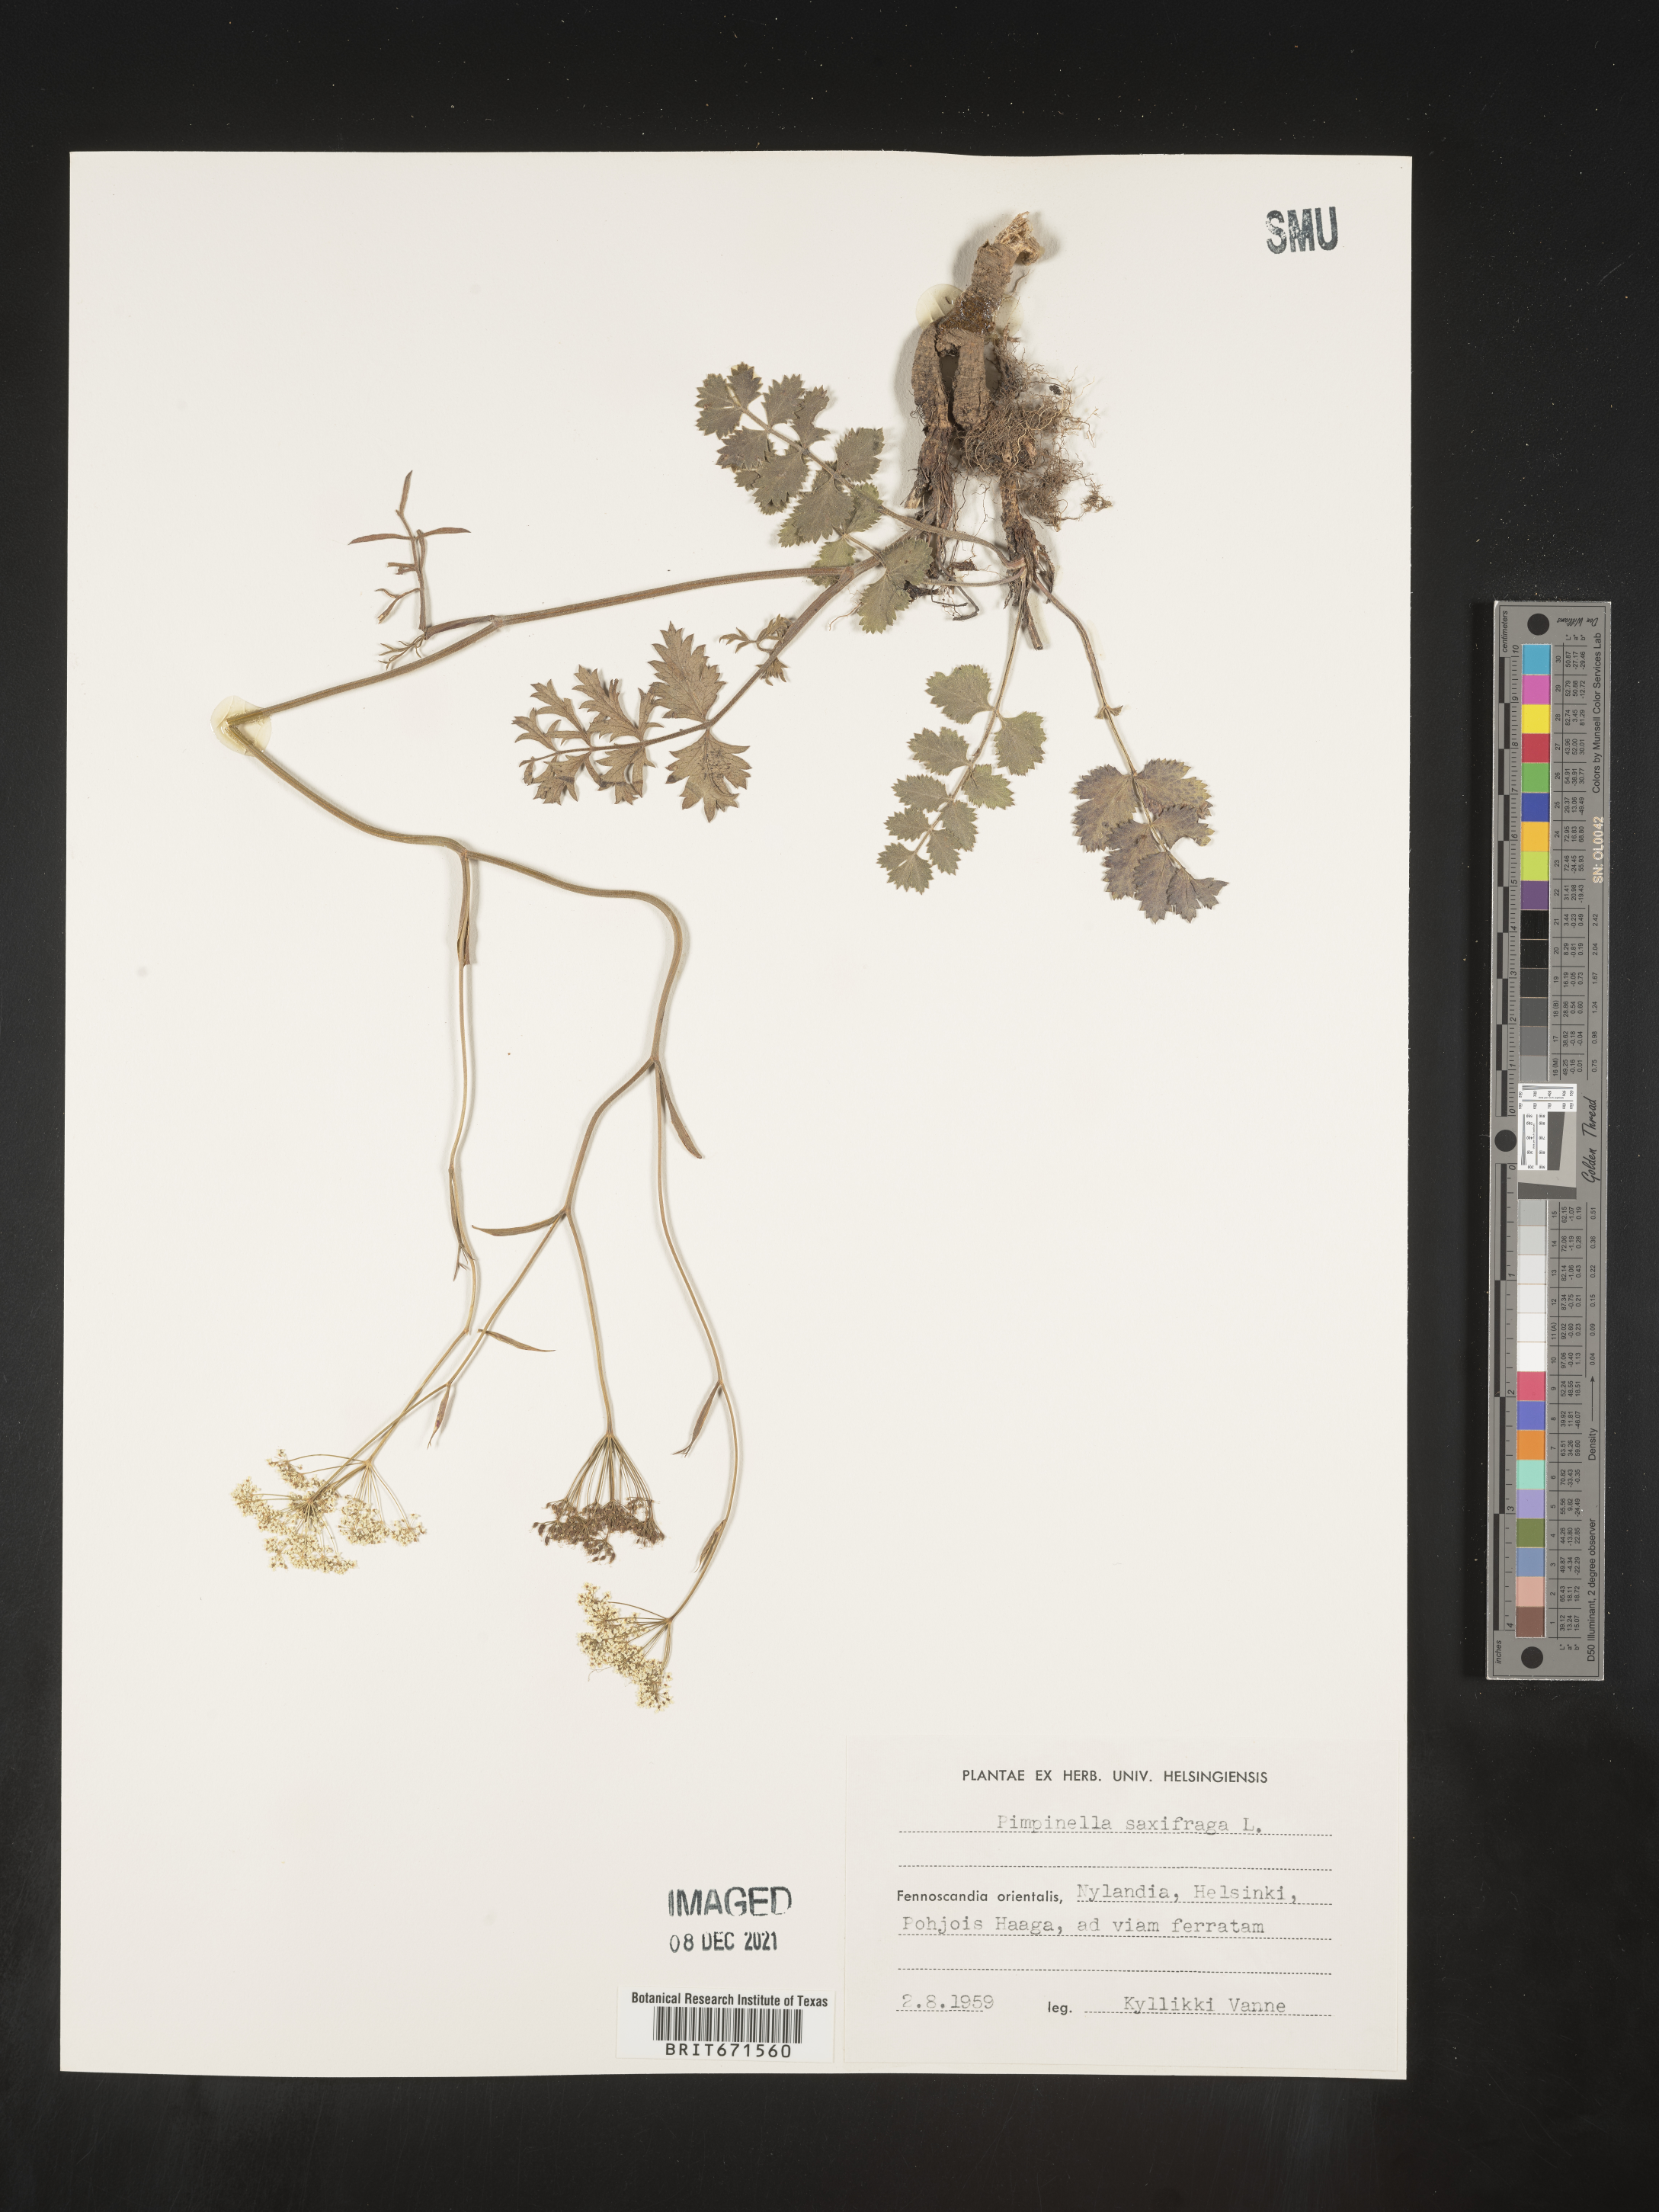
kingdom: Plantae
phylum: Tracheophyta
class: Magnoliopsida
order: Apiales
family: Apiaceae
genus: Pimpinella
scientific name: Pimpinella
